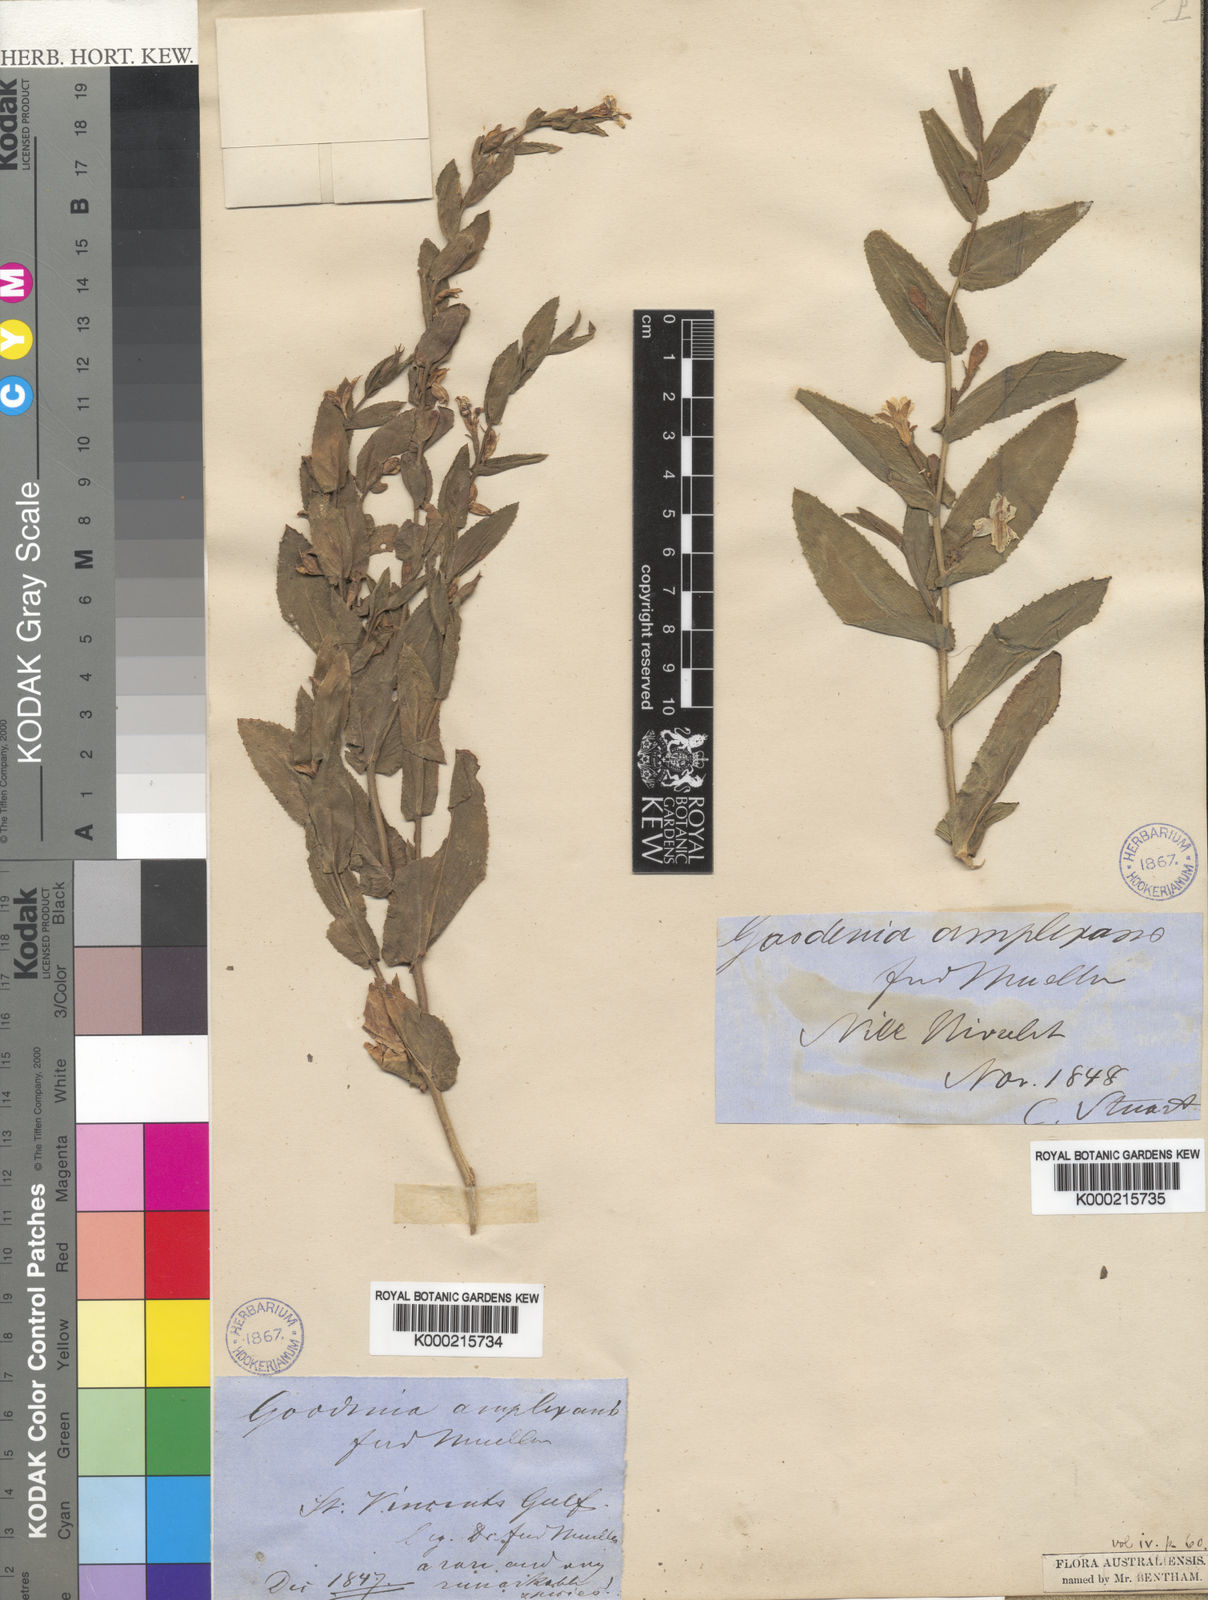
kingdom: Plantae
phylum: Tracheophyta
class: Magnoliopsida
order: Asterales
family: Goodeniaceae
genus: Goodenia
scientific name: Goodenia amplexans
